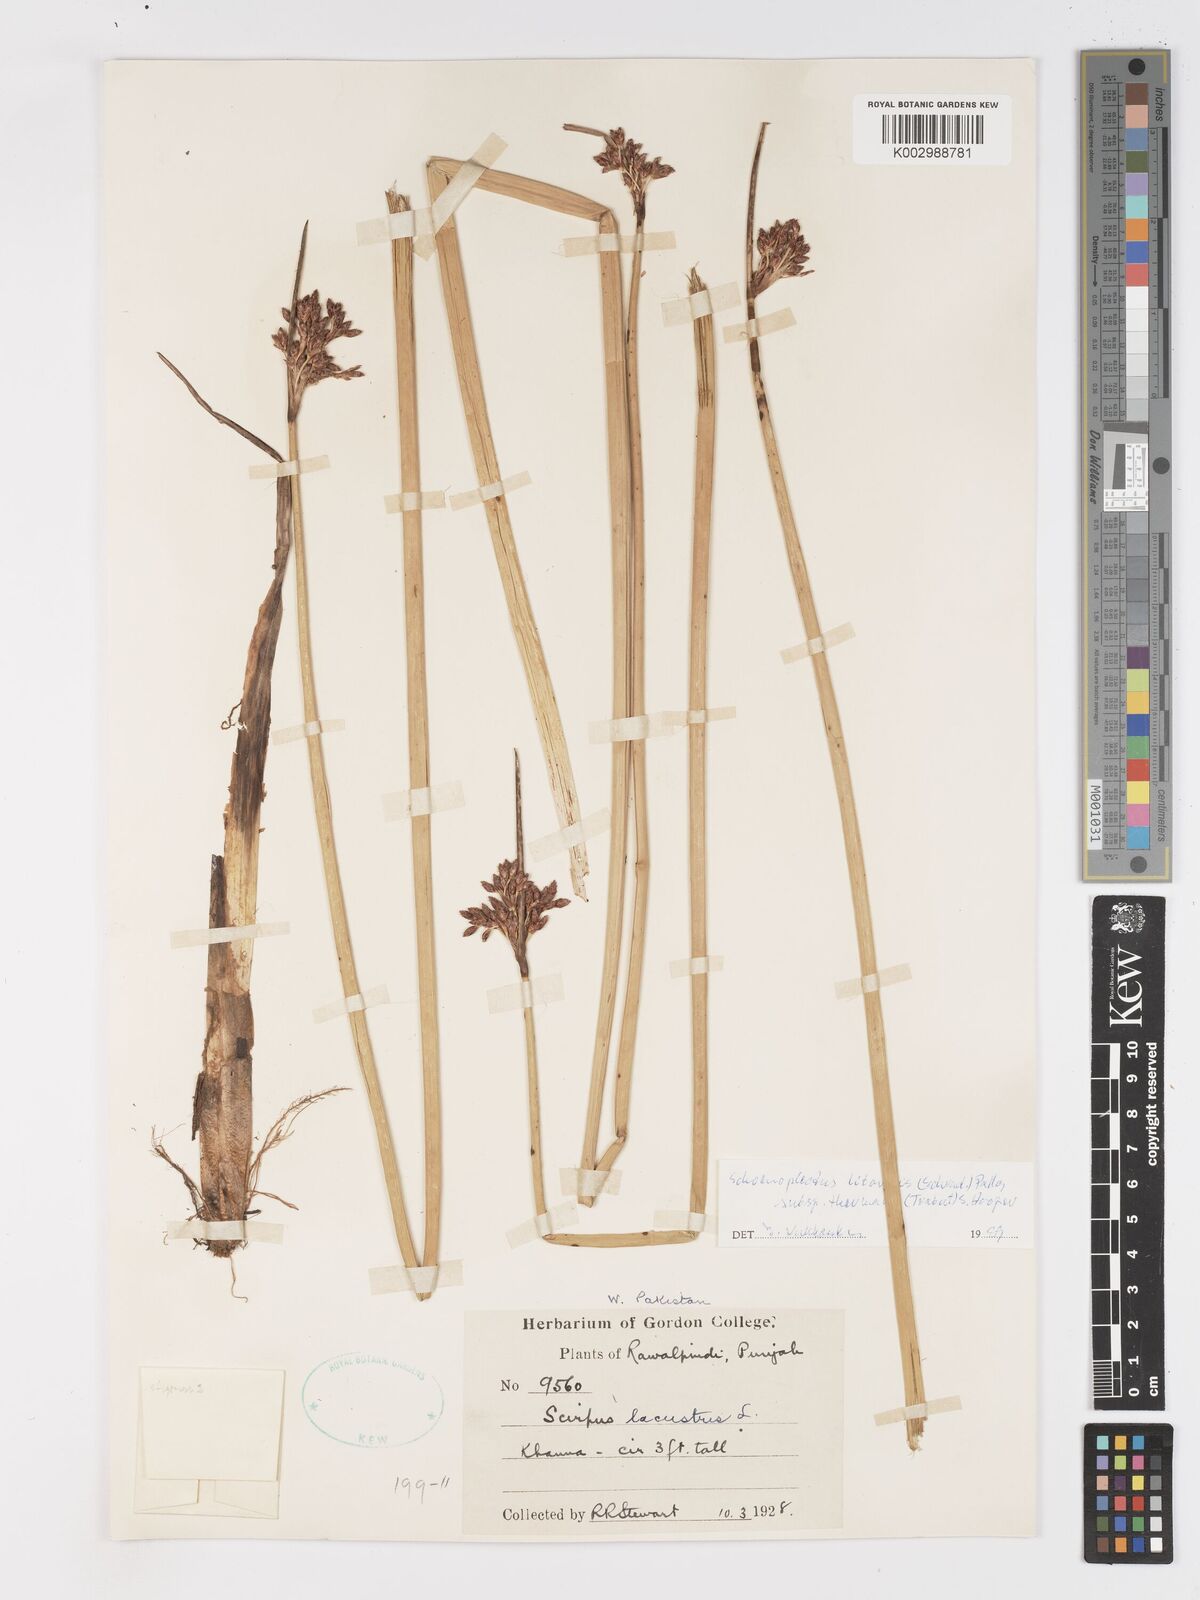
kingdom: Plantae
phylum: Tracheophyta
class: Liliopsida
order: Poales
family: Cyperaceae
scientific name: Cyperaceae
